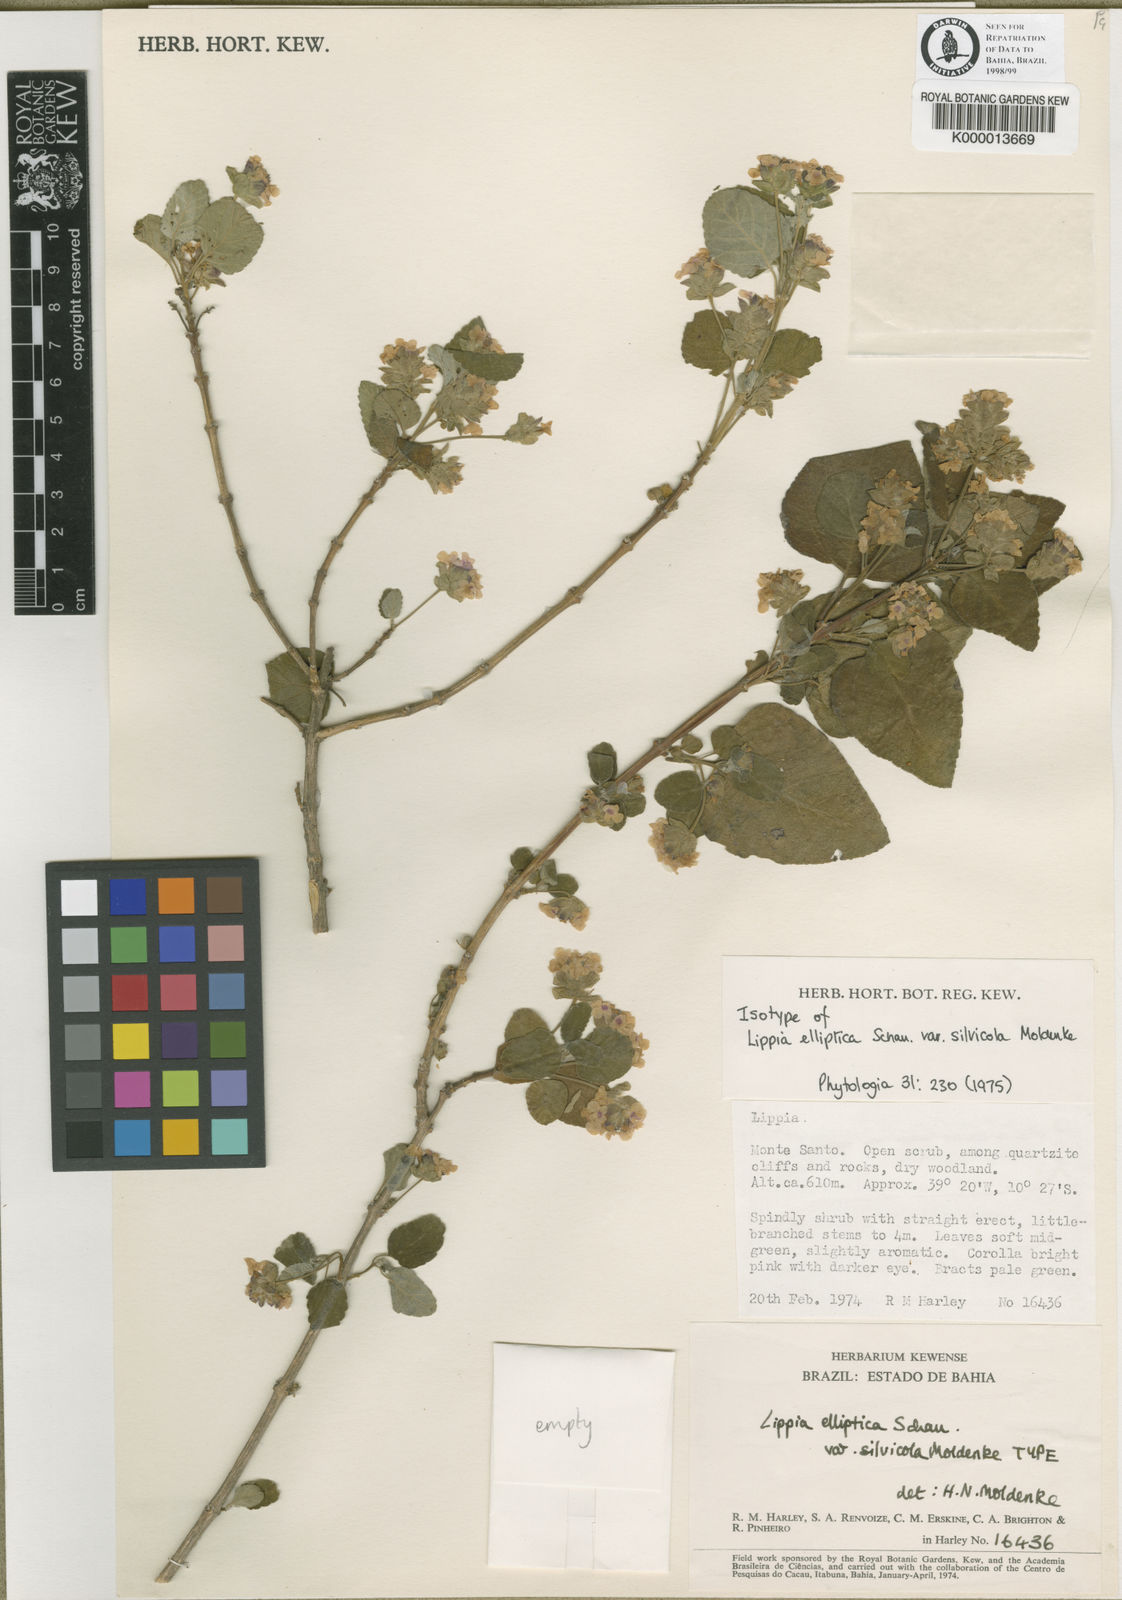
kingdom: Plantae
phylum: Tracheophyta
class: Magnoliopsida
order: Lamiales
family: Verbenaceae
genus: Lippia
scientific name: Lippia subracemosa
